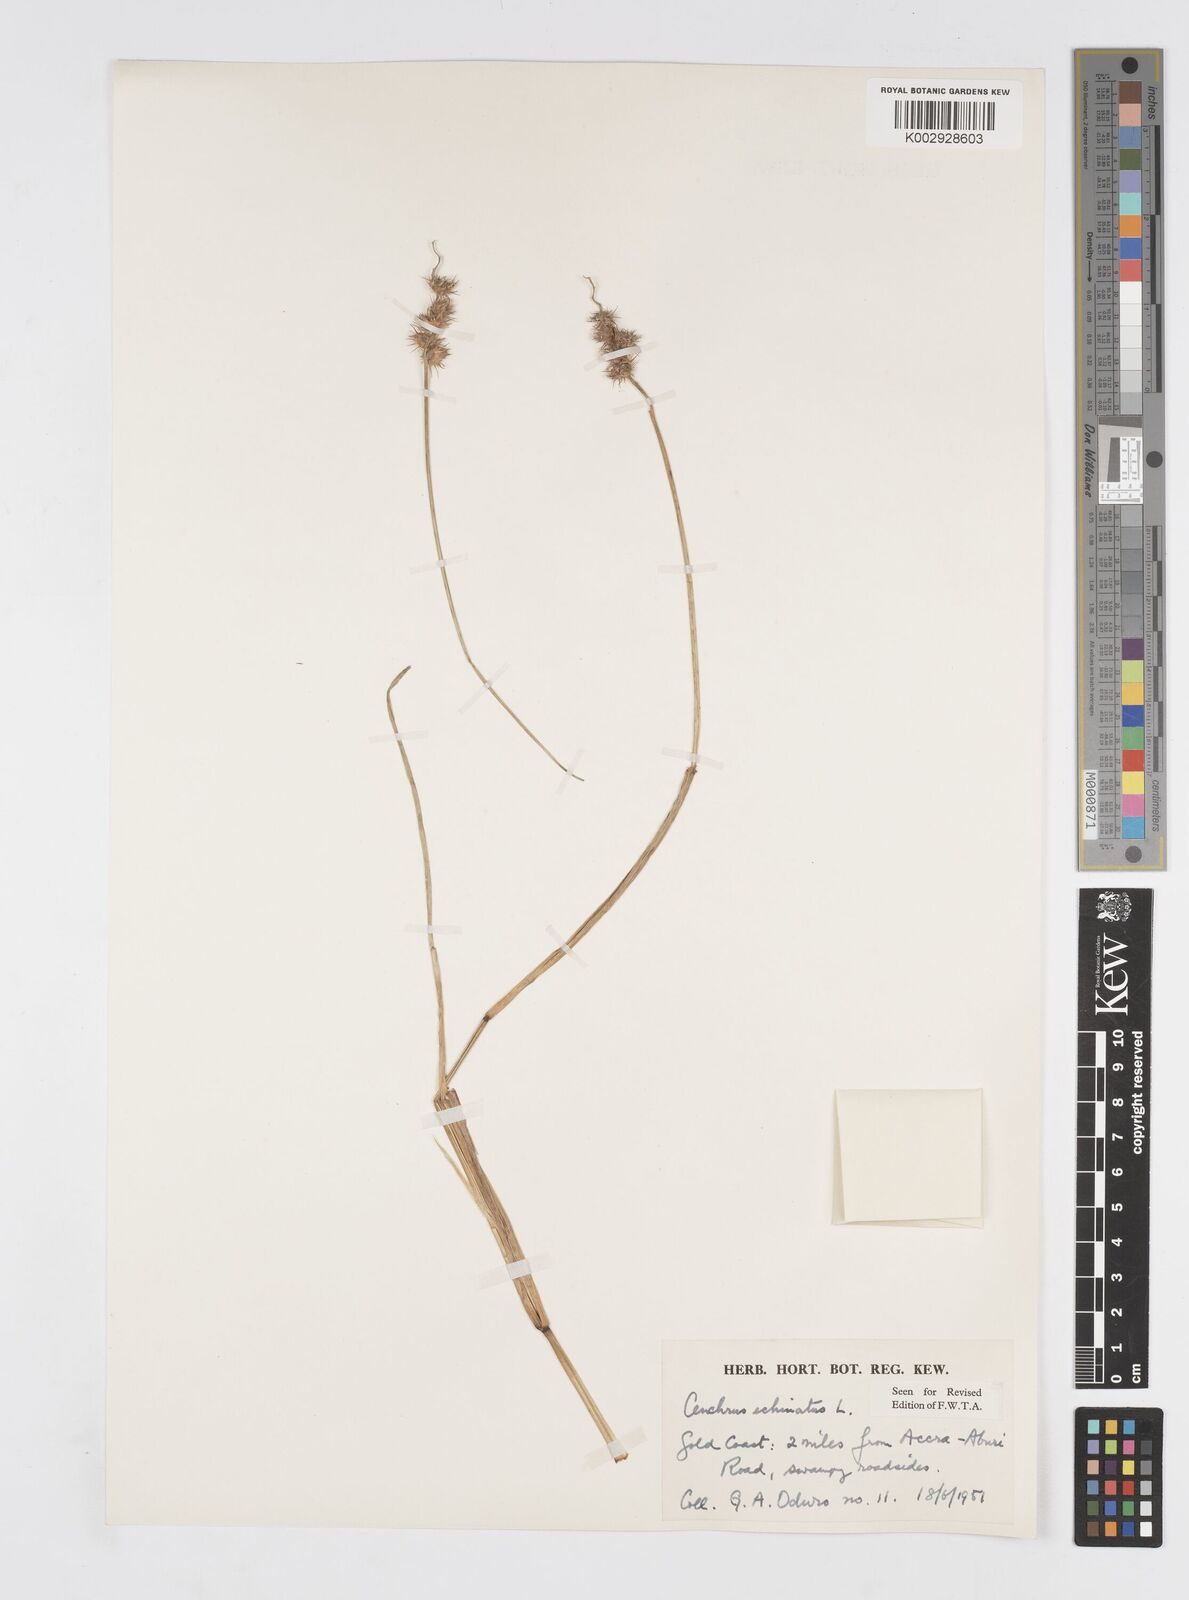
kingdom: Plantae
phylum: Tracheophyta
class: Liliopsida
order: Poales
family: Poaceae
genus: Cenchrus
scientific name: Cenchrus echinatus
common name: Southern sandbur
